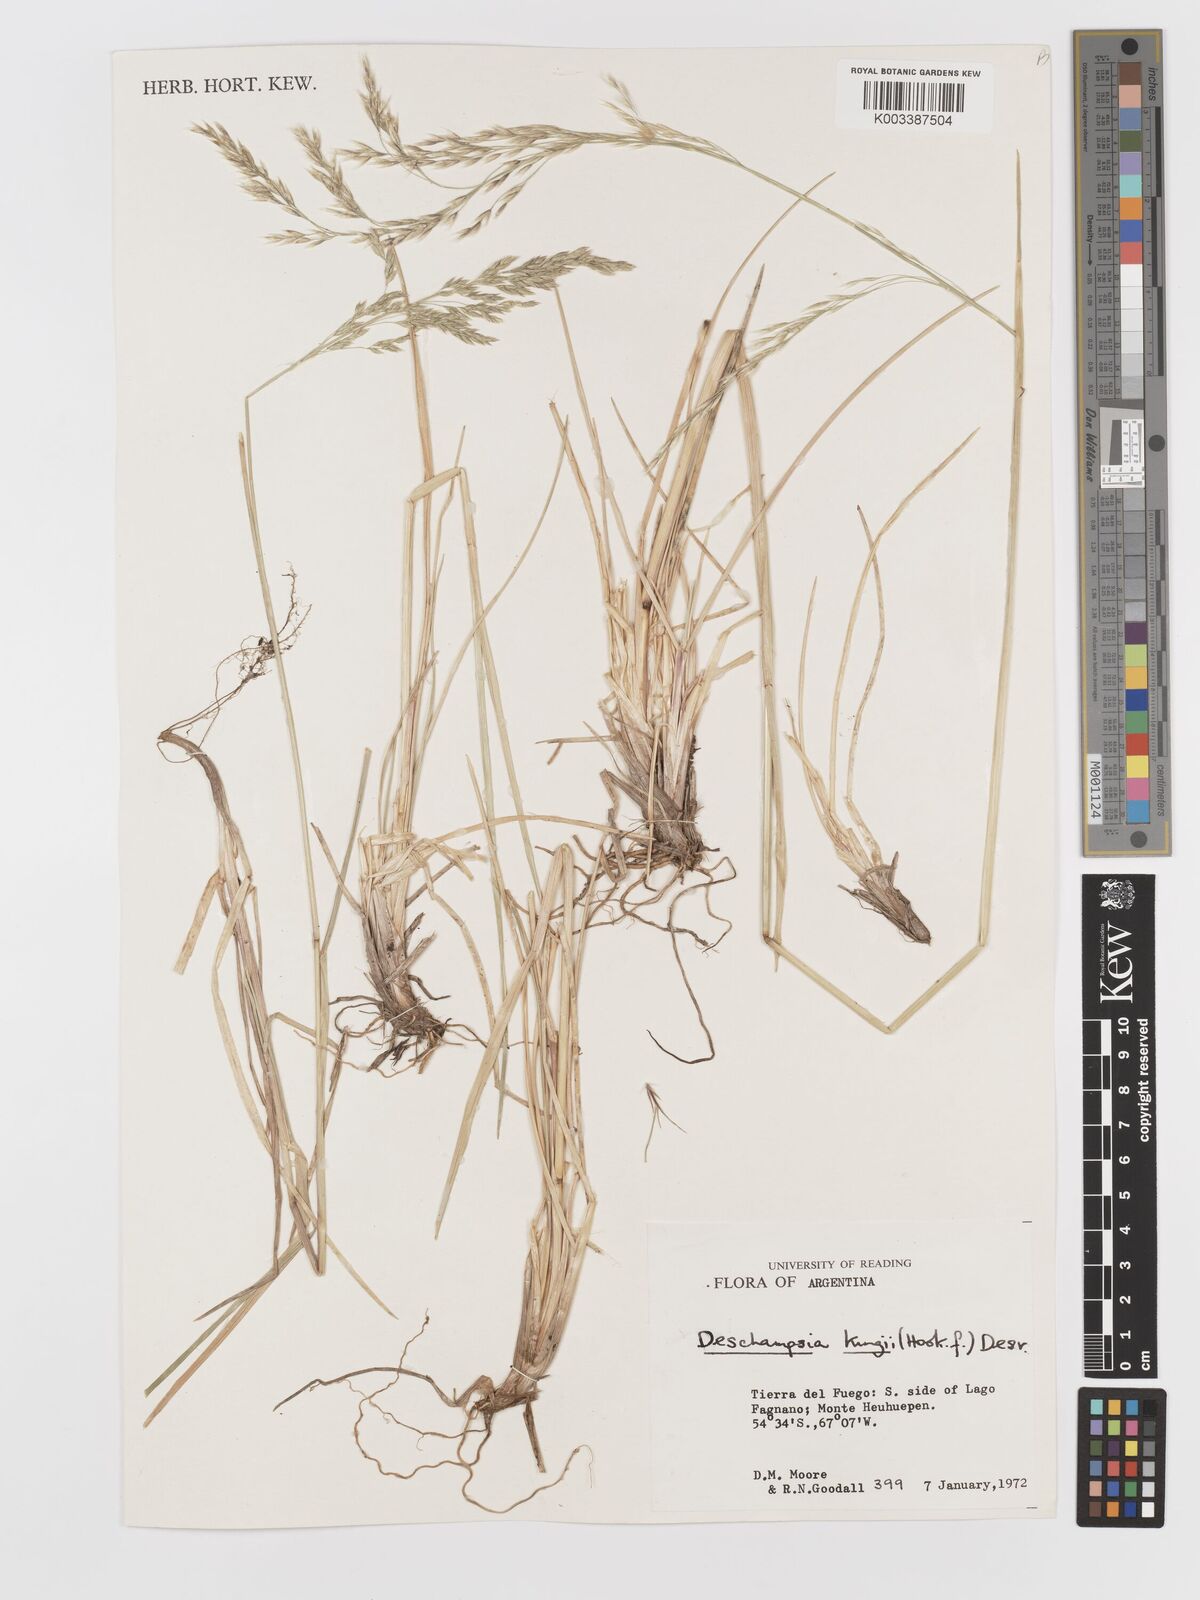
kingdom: Plantae
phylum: Tracheophyta
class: Liliopsida
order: Poales
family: Poaceae
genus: Deschampsia
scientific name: Deschampsia kingii
